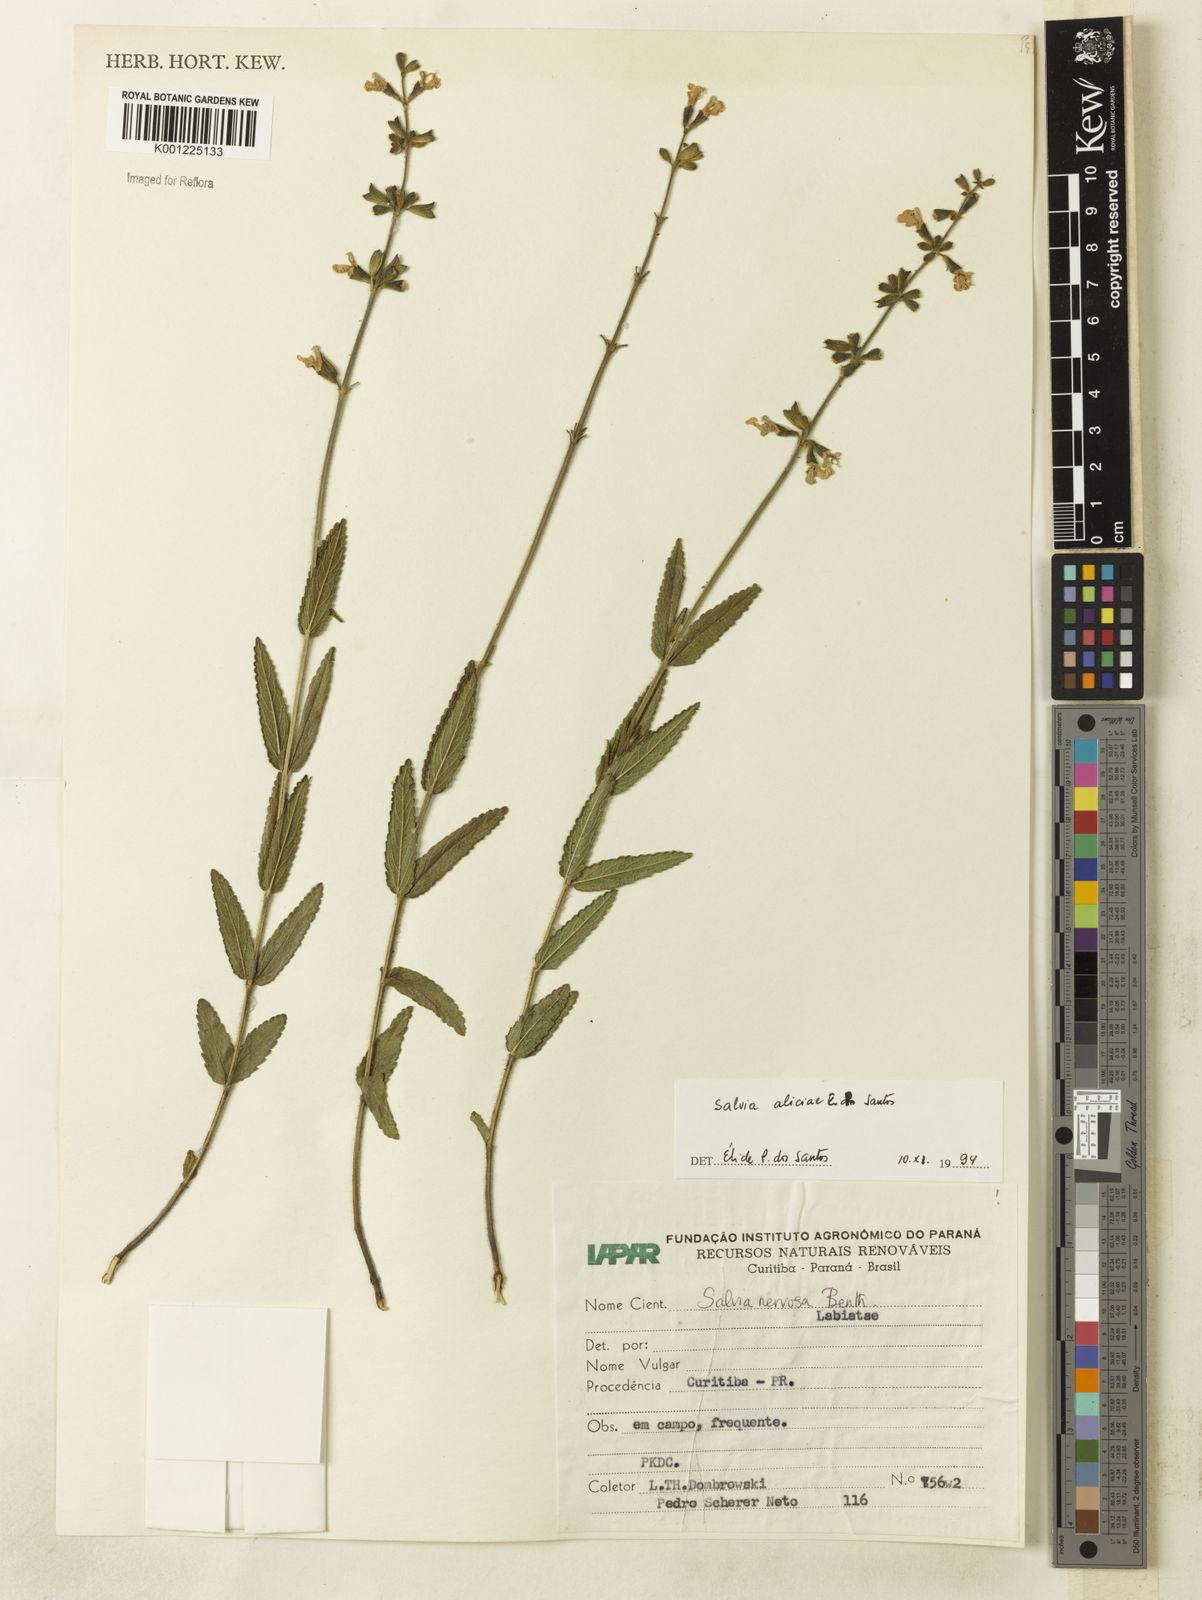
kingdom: Plantae
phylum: Tracheophyta
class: Magnoliopsida
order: Lamiales
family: Lamiaceae
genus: Salvia
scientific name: Salvia aliciae
